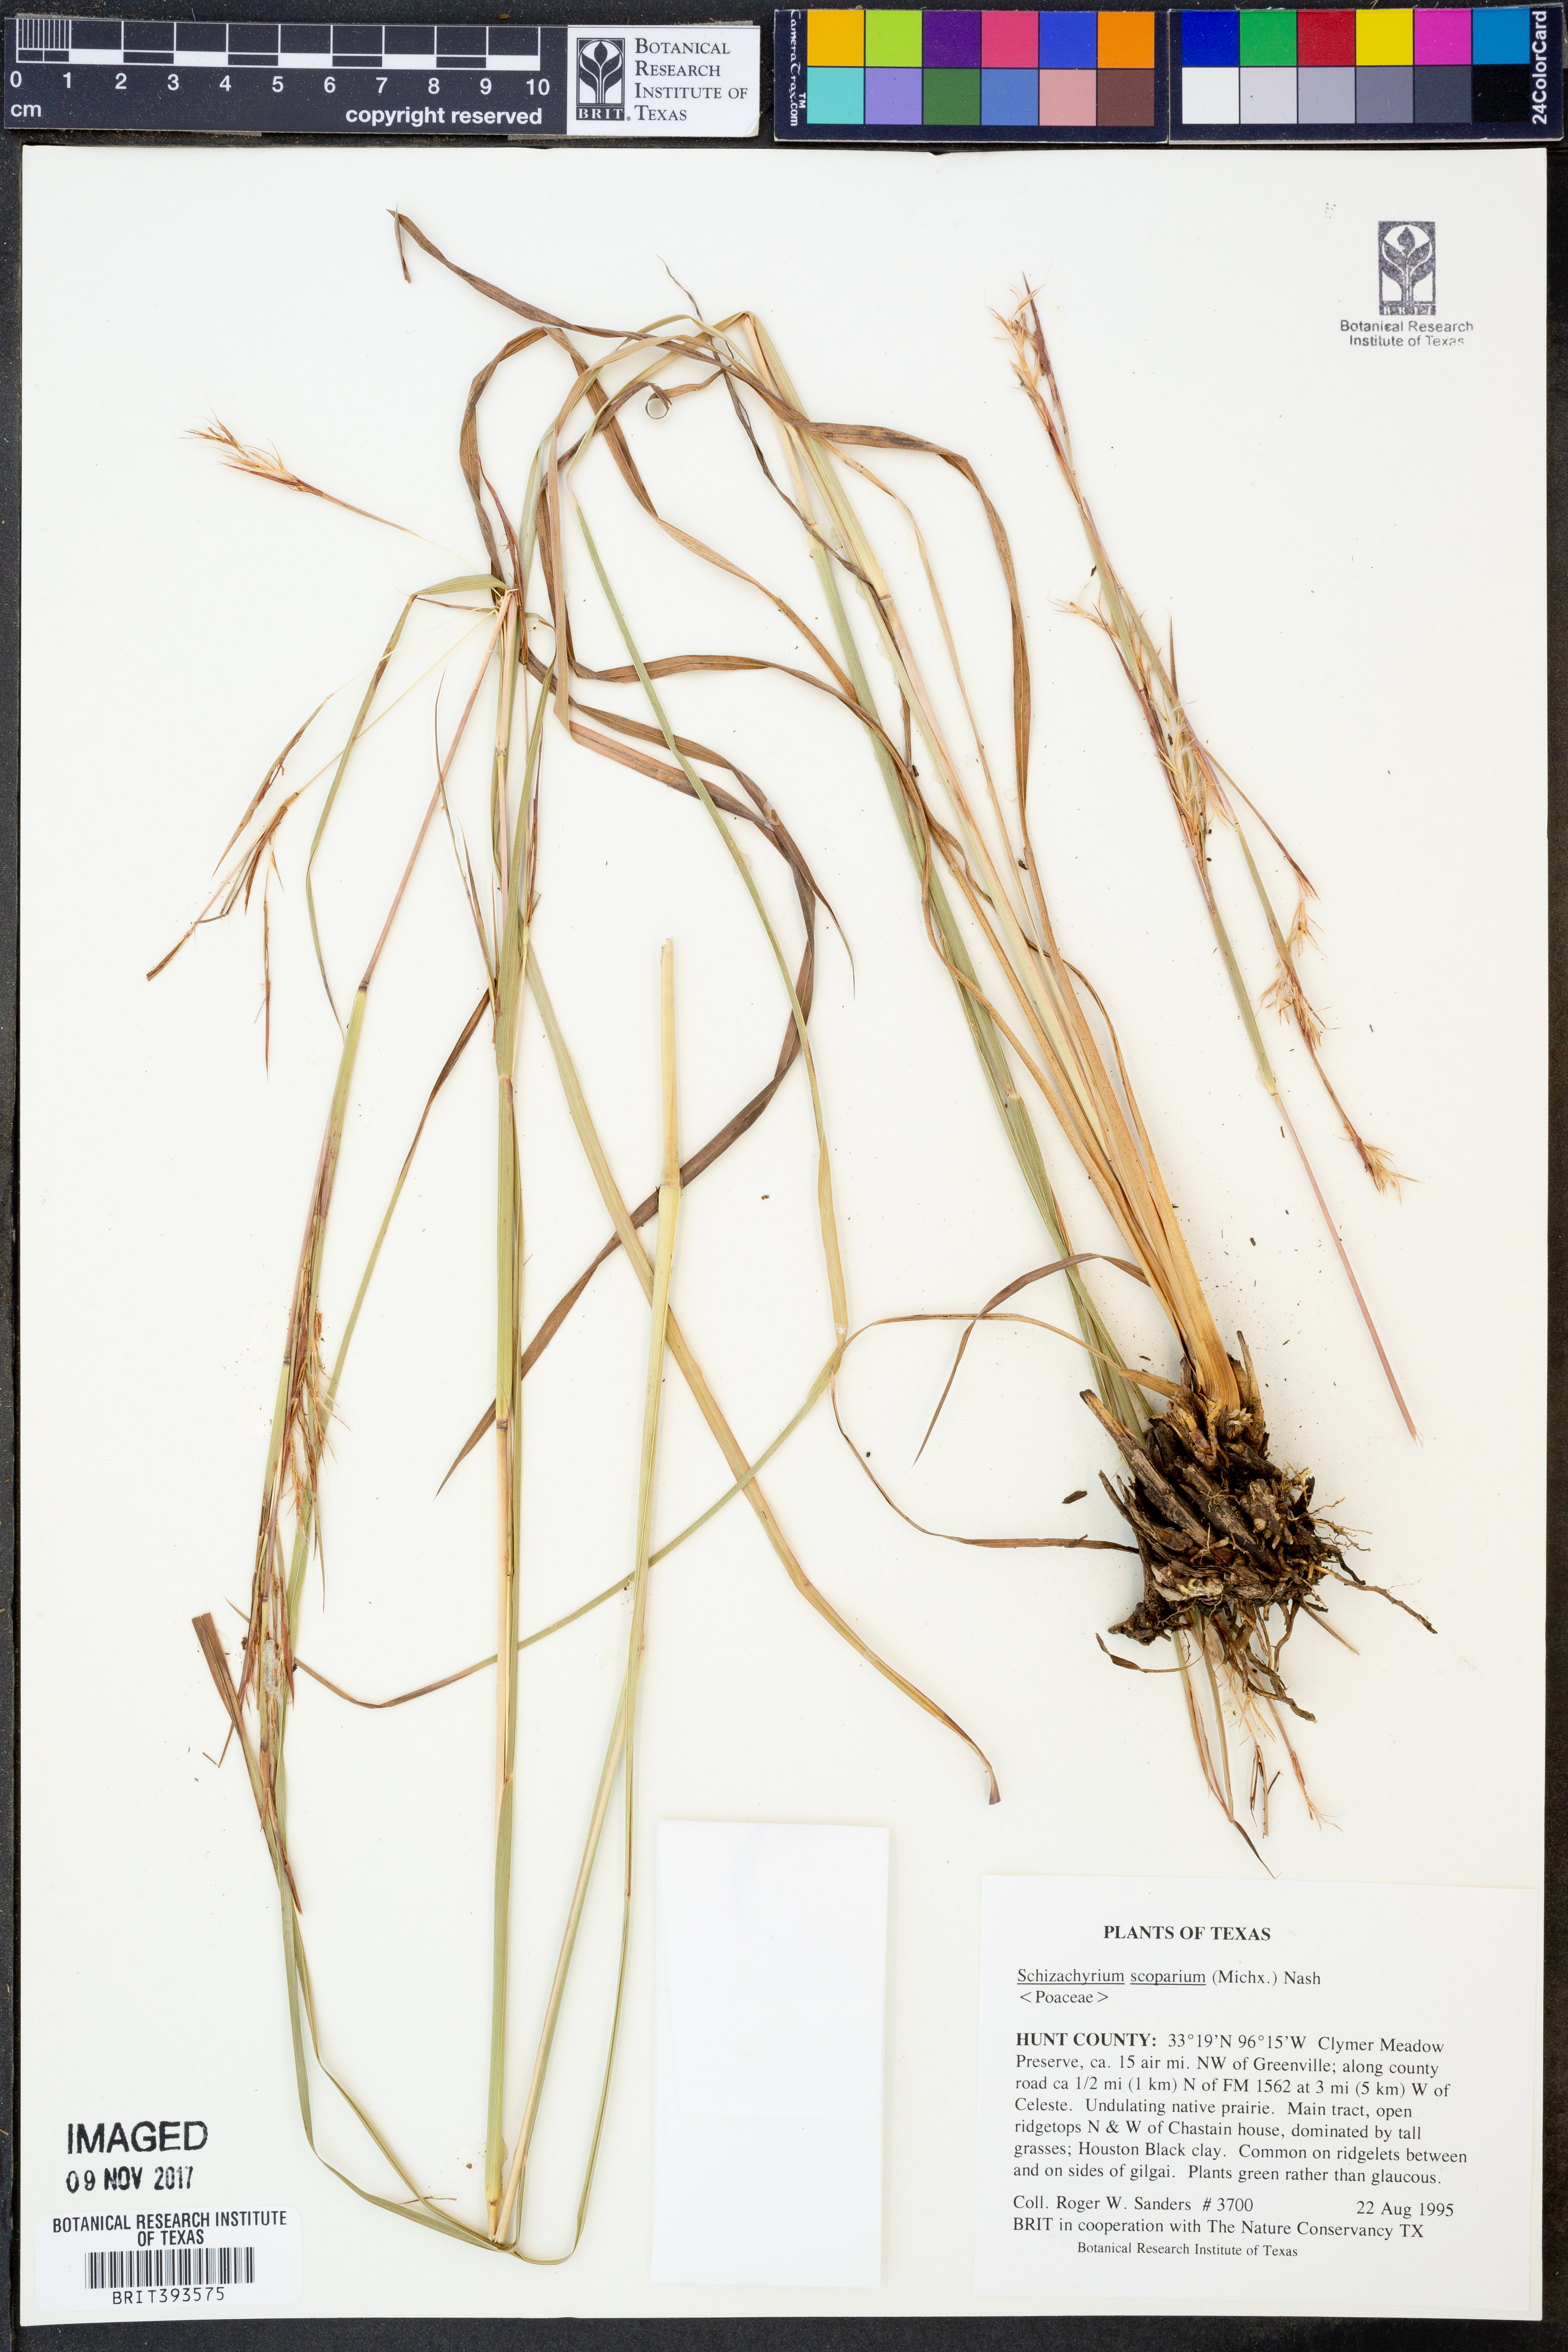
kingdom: Plantae
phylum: Tracheophyta
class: Liliopsida
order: Poales
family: Poaceae
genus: Schizachyrium
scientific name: Schizachyrium scoparium
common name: Little bluestem
